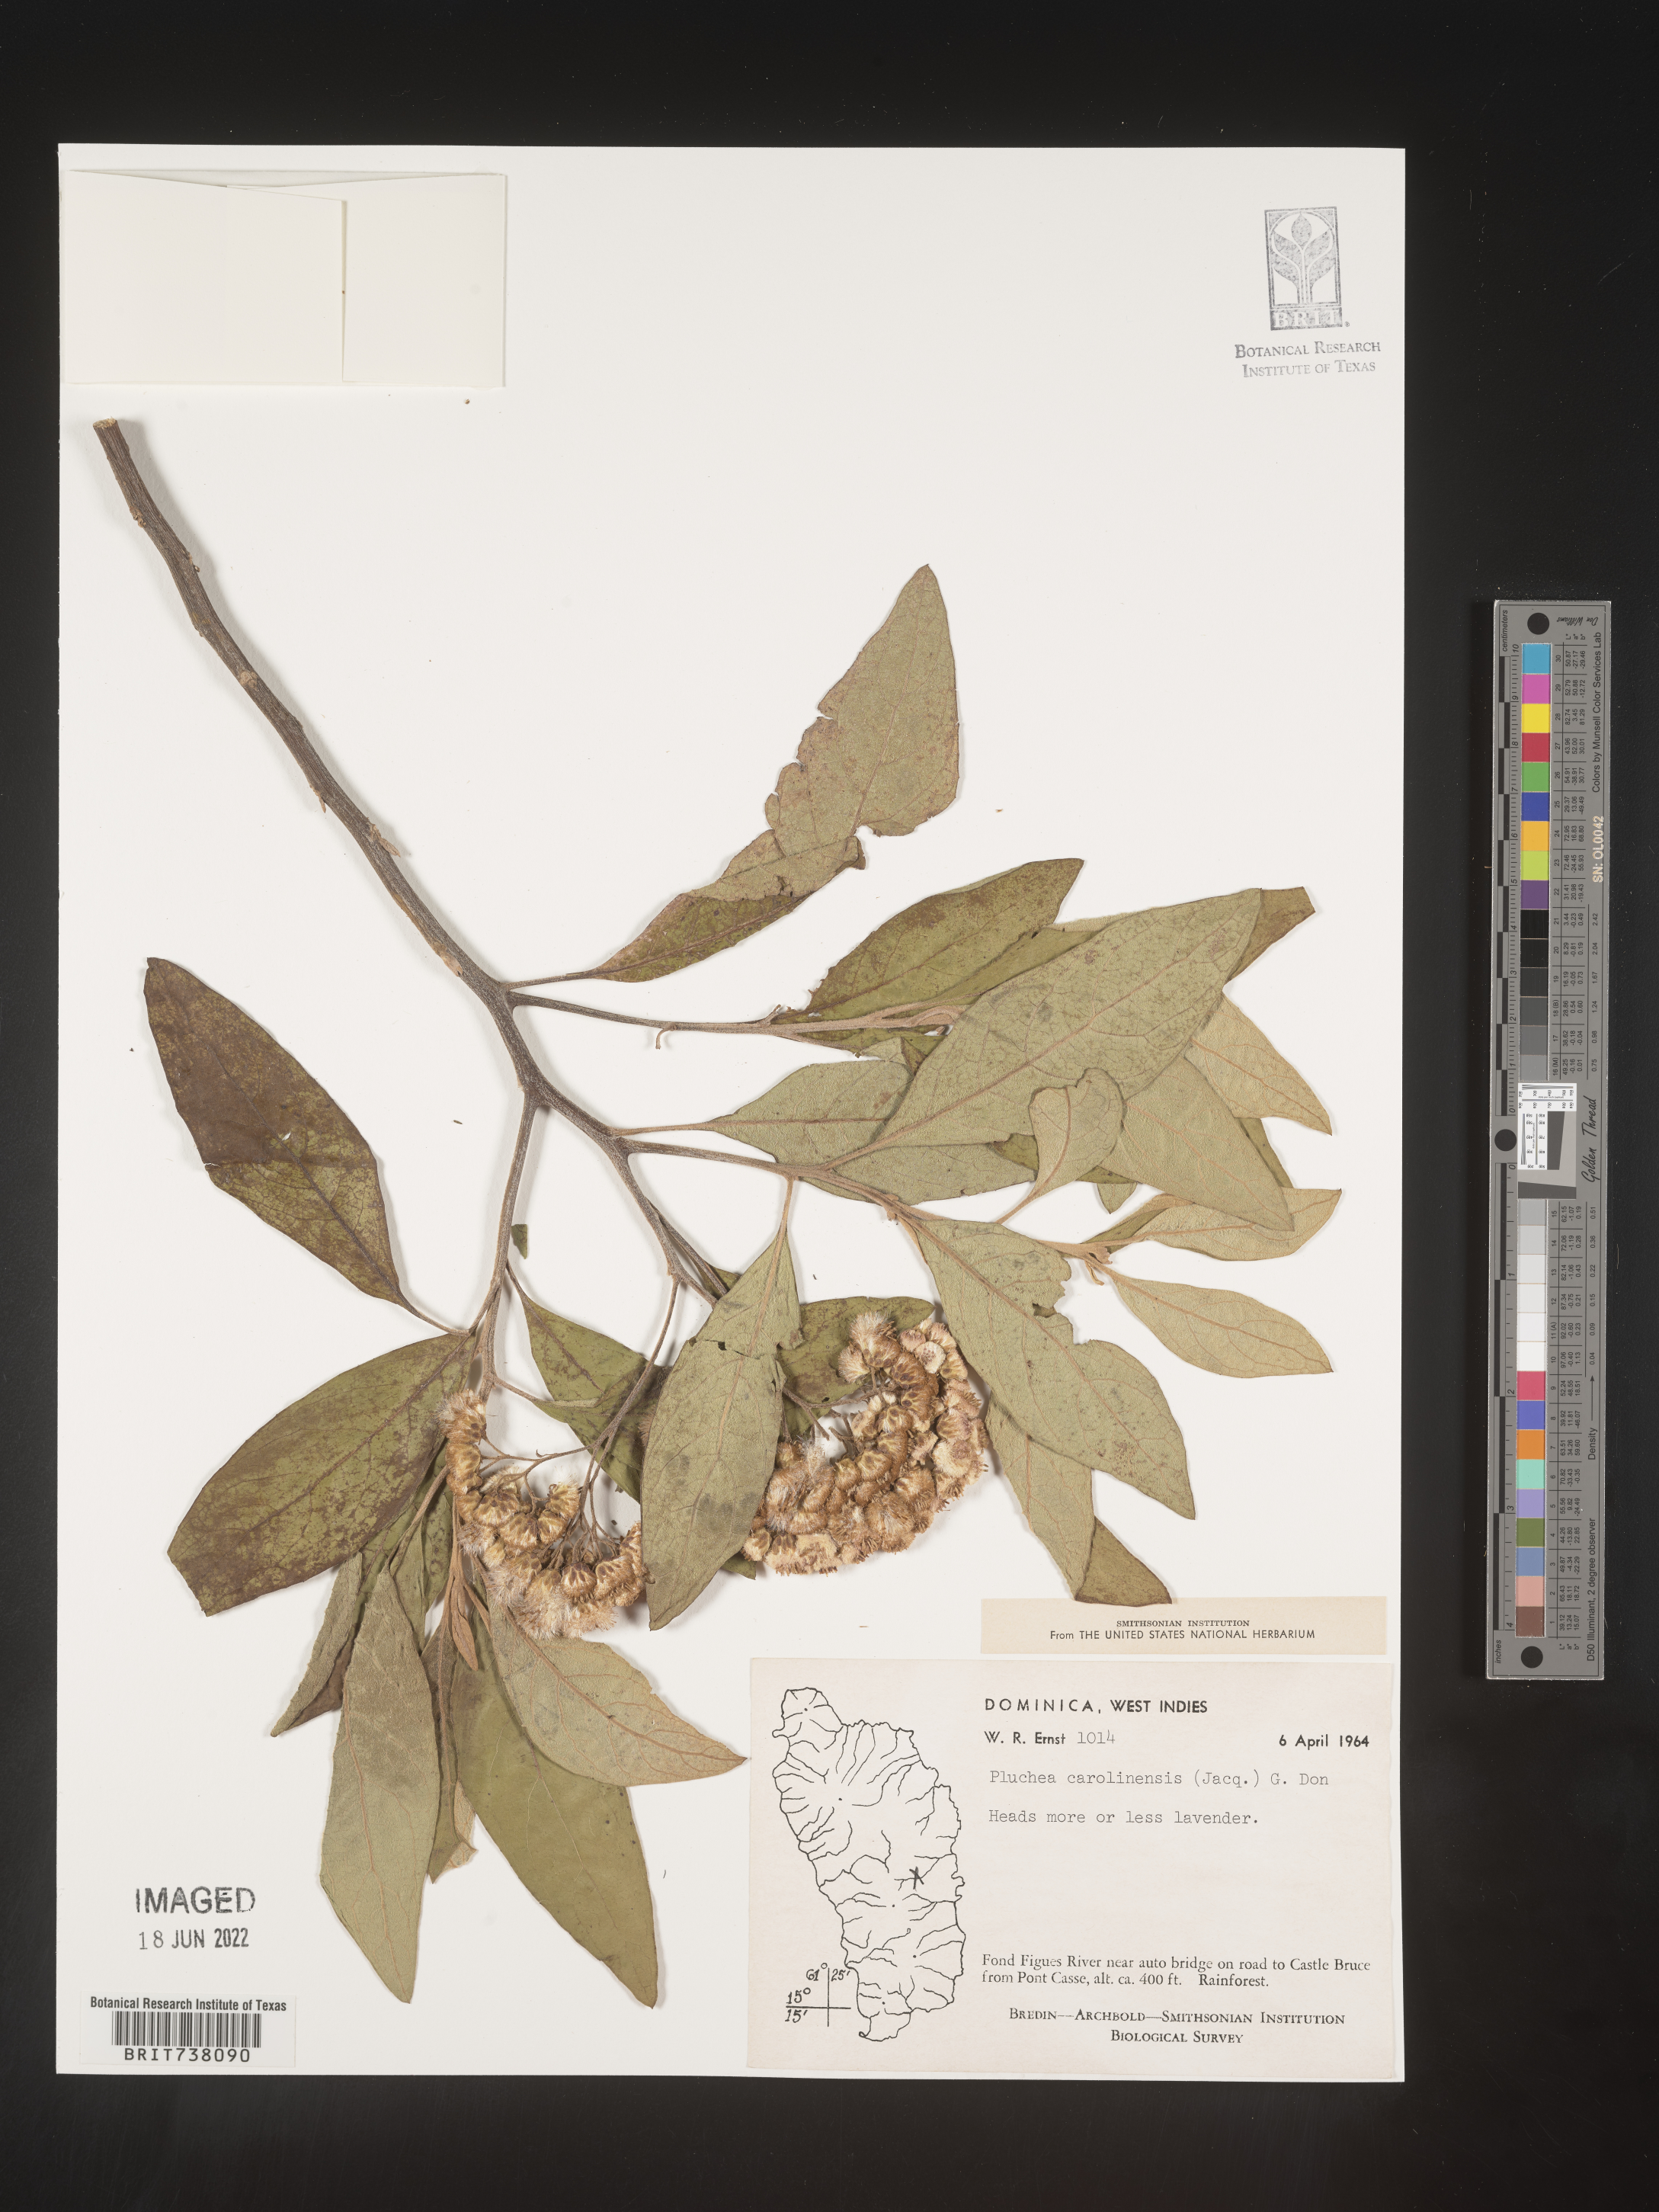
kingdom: Plantae
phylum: Tracheophyta
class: Magnoliopsida
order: Asterales
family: Asteraceae
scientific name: Asteraceae
